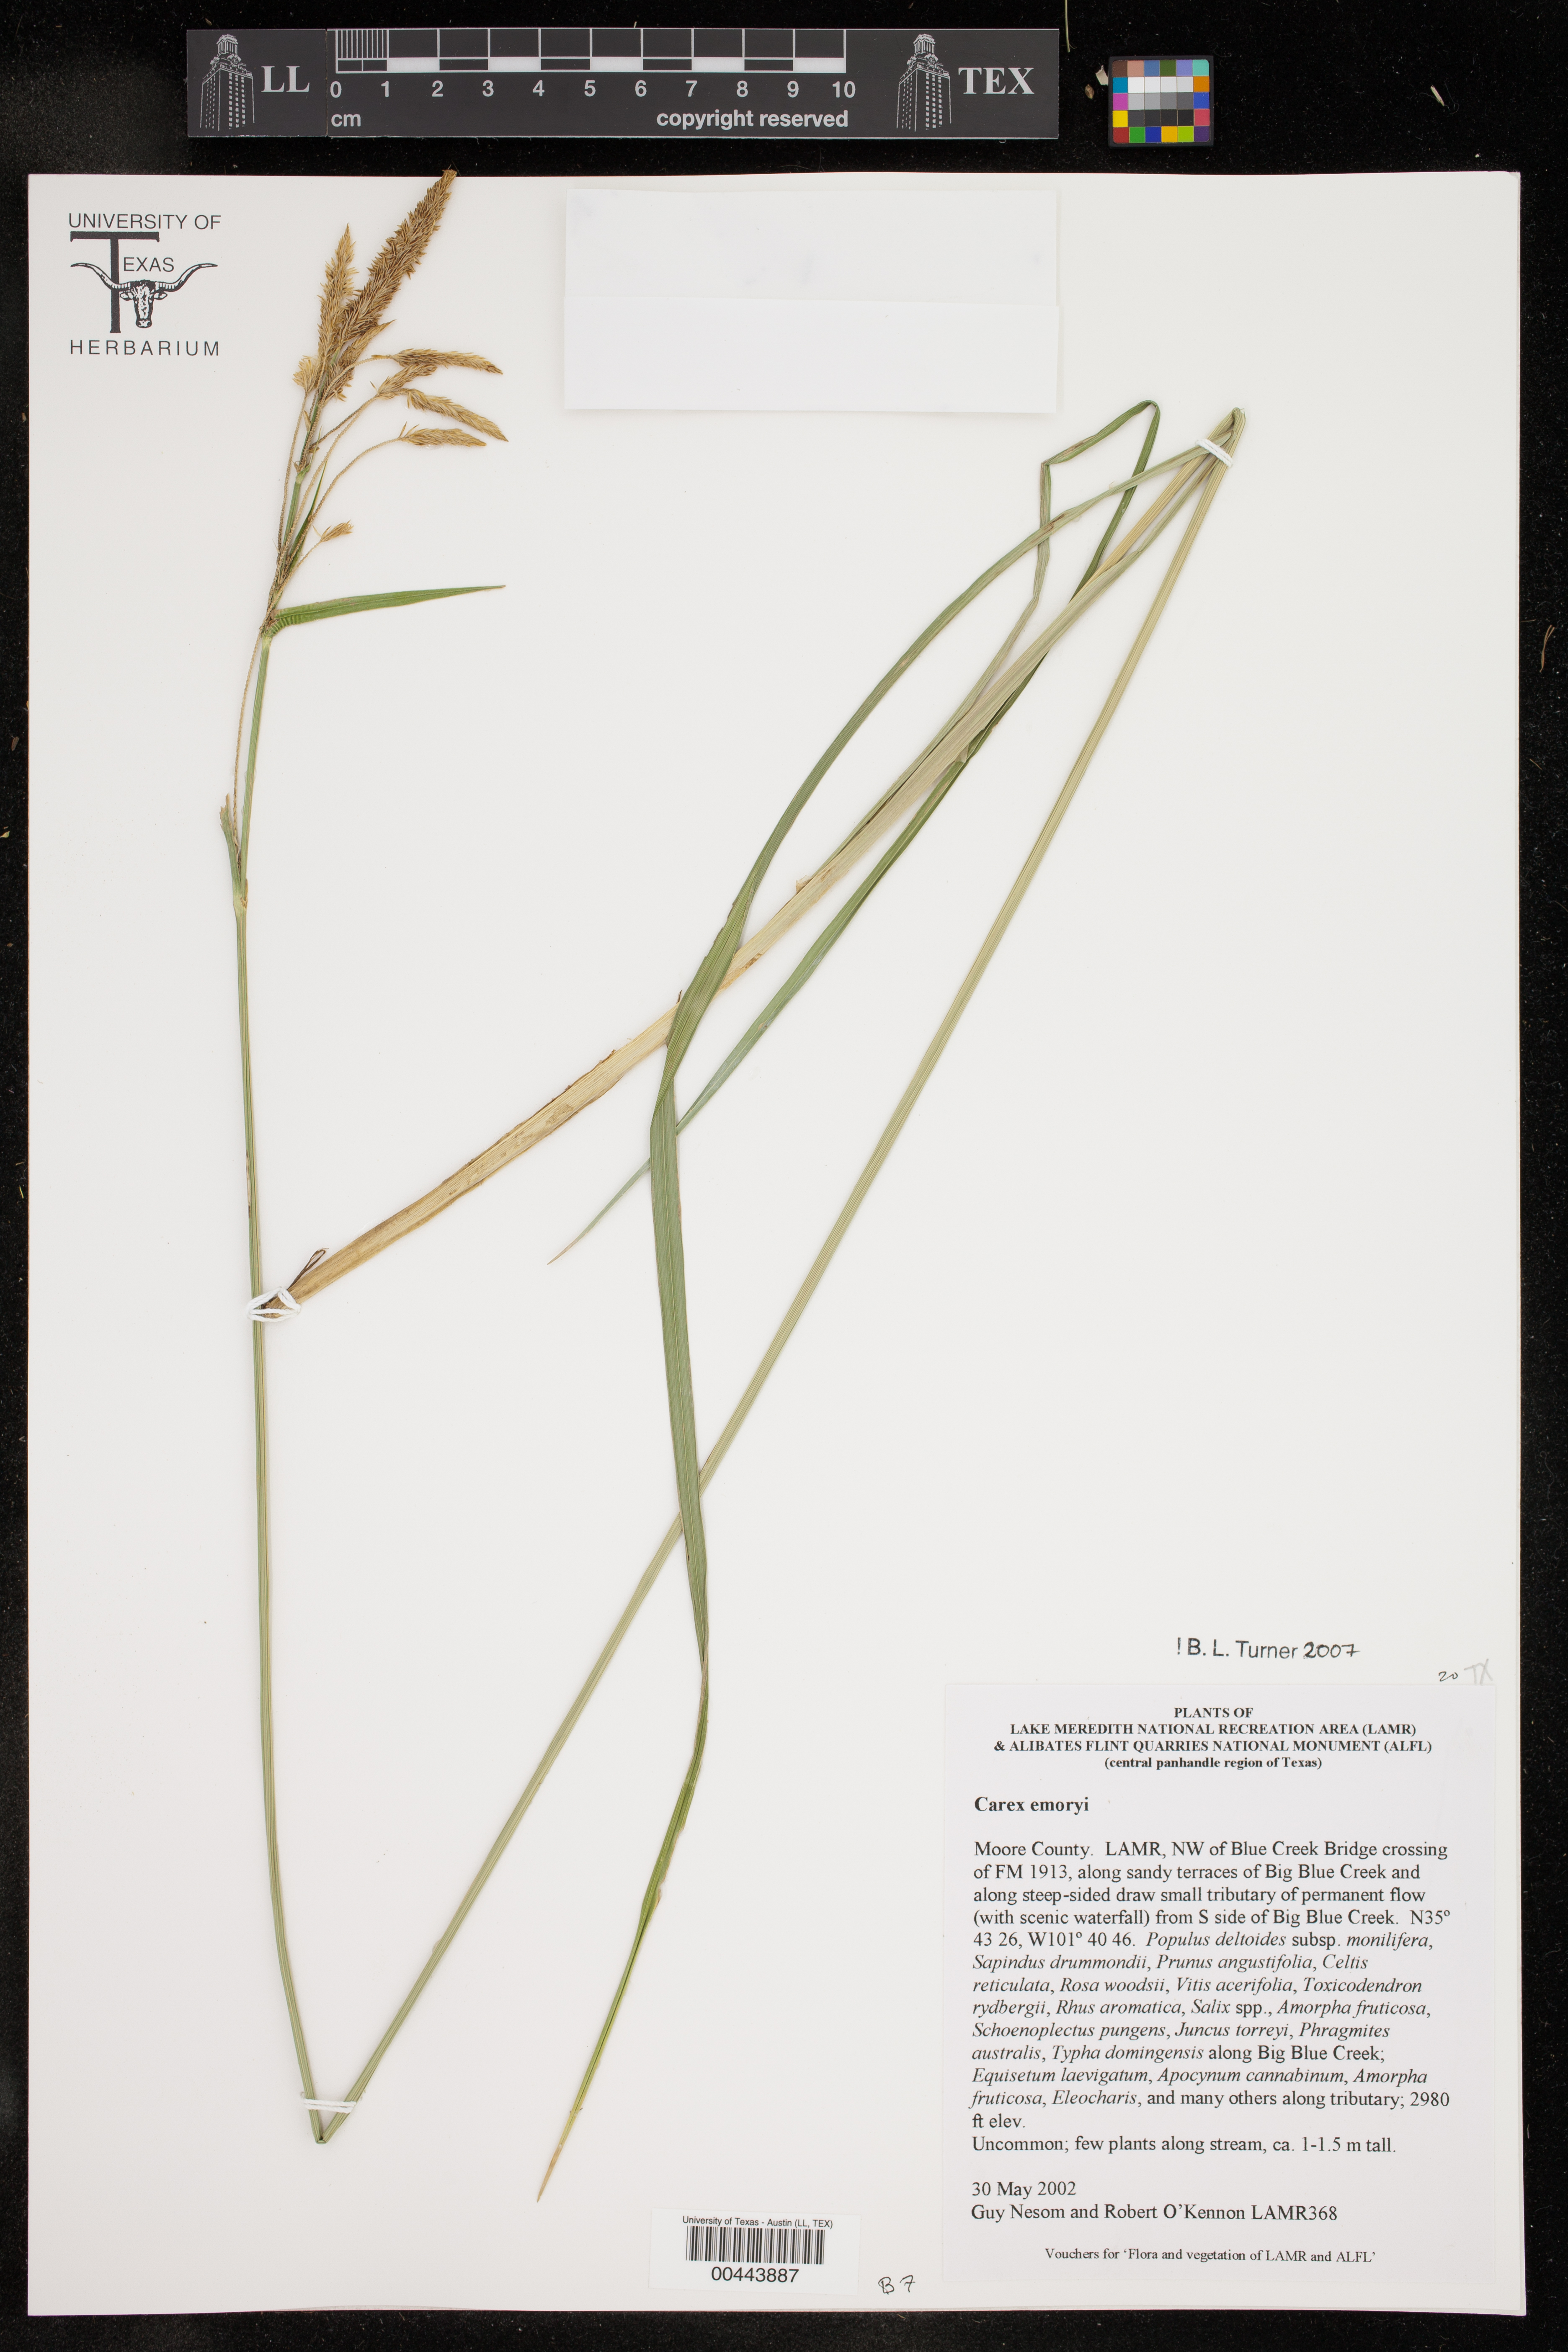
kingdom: Plantae
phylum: Tracheophyta
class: Liliopsida
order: Poales
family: Cyperaceae
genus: Carex
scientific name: Carex emoryi
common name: Emory's sedge
